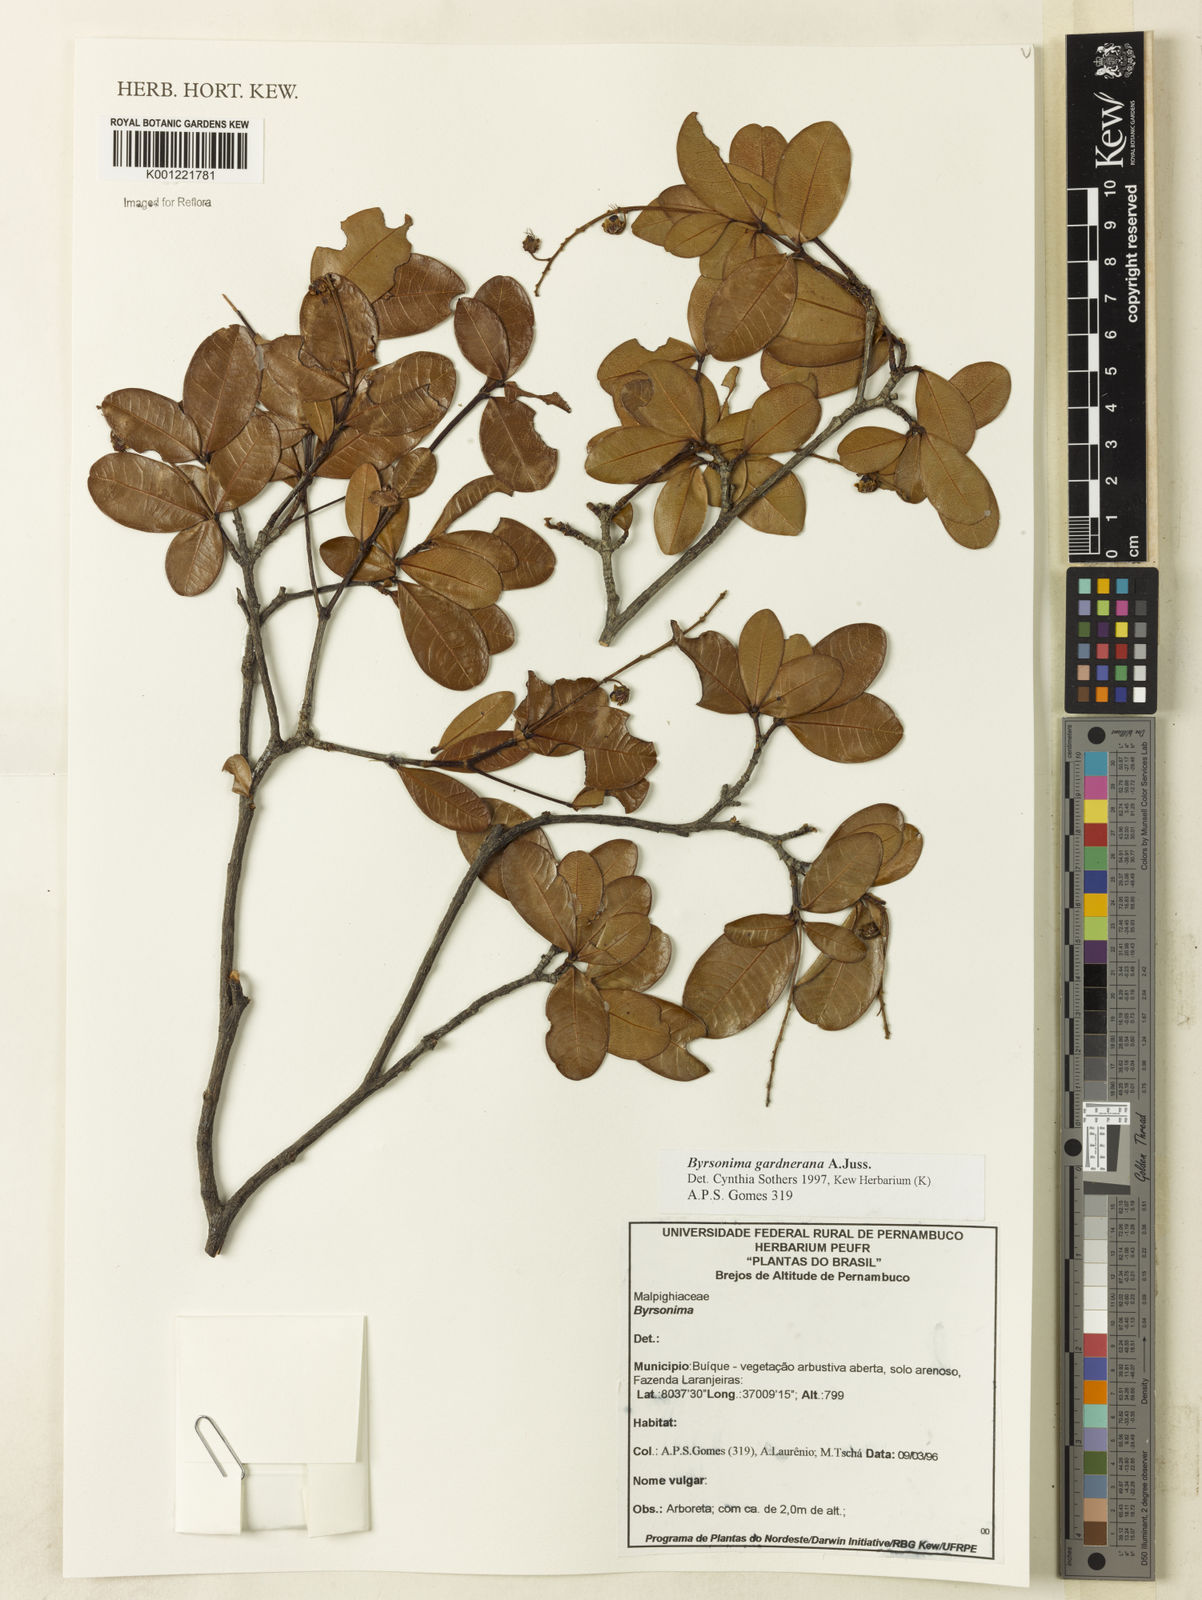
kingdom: Plantae
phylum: Tracheophyta
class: Magnoliopsida
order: Malpighiales
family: Malpighiaceae
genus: Byrsonima
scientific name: Byrsonima gardneriana
